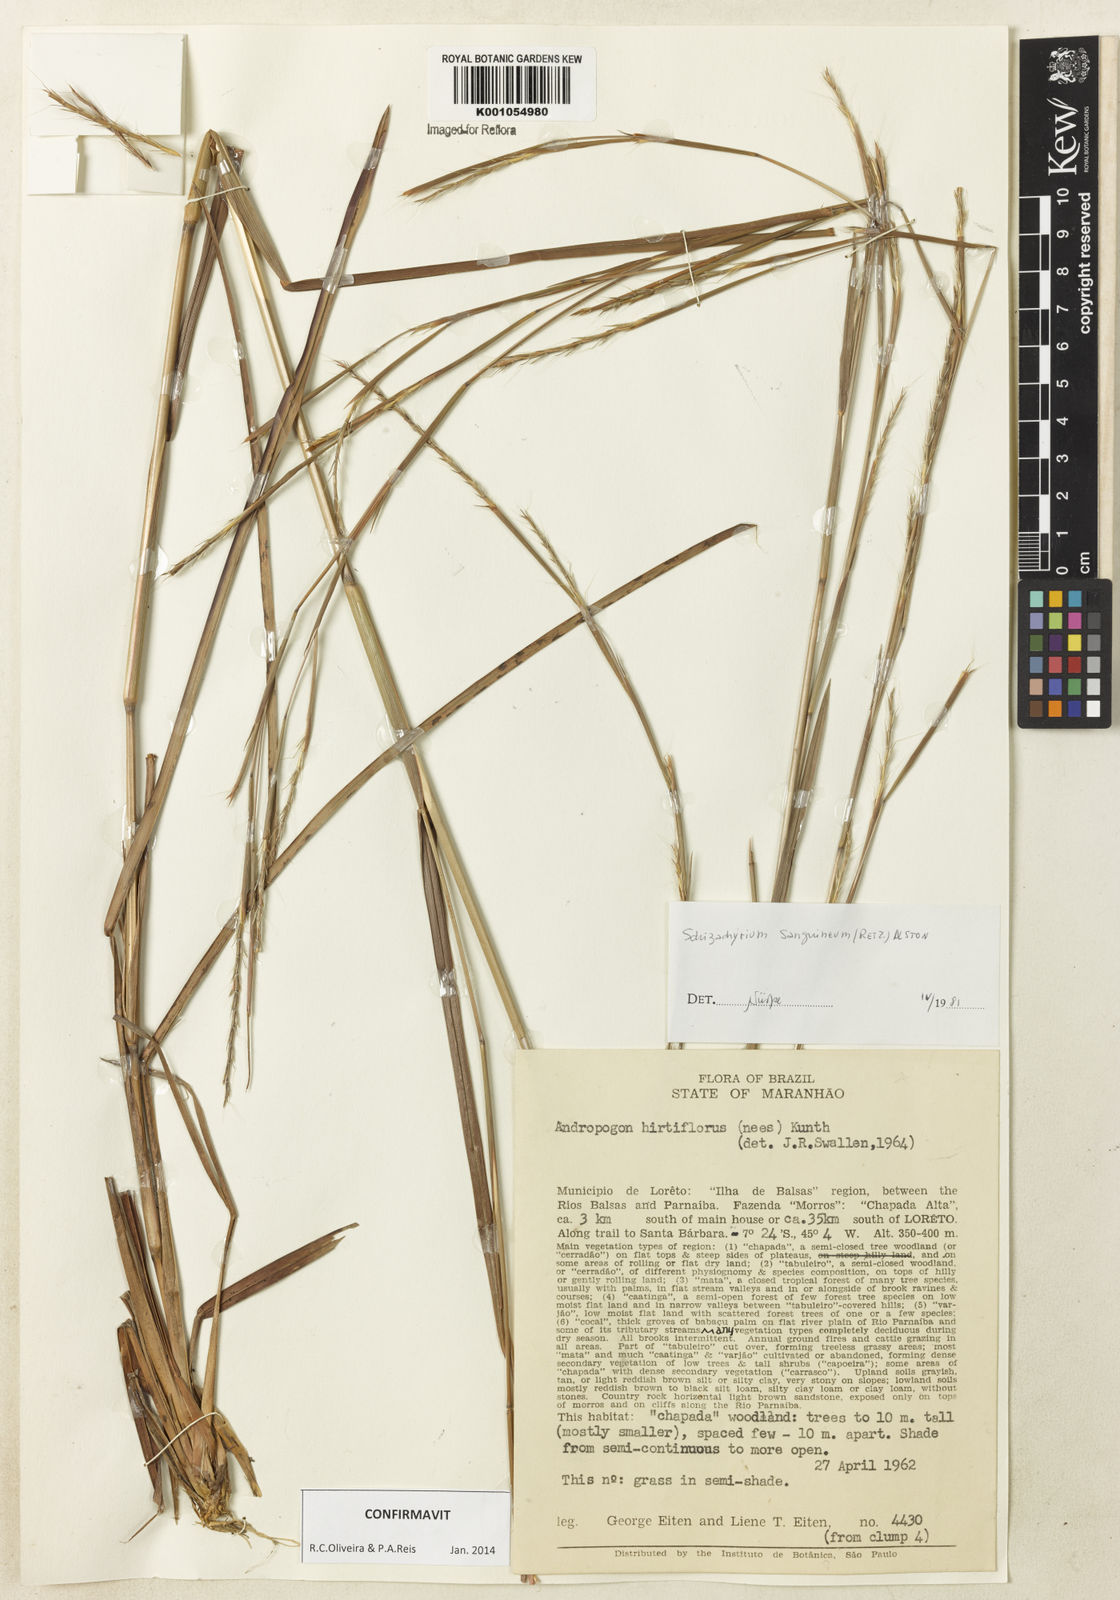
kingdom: Plantae
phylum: Tracheophyta
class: Liliopsida
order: Poales
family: Poaceae
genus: Schizachyrium
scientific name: Schizachyrium sanguineum
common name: Crimson bluestem
